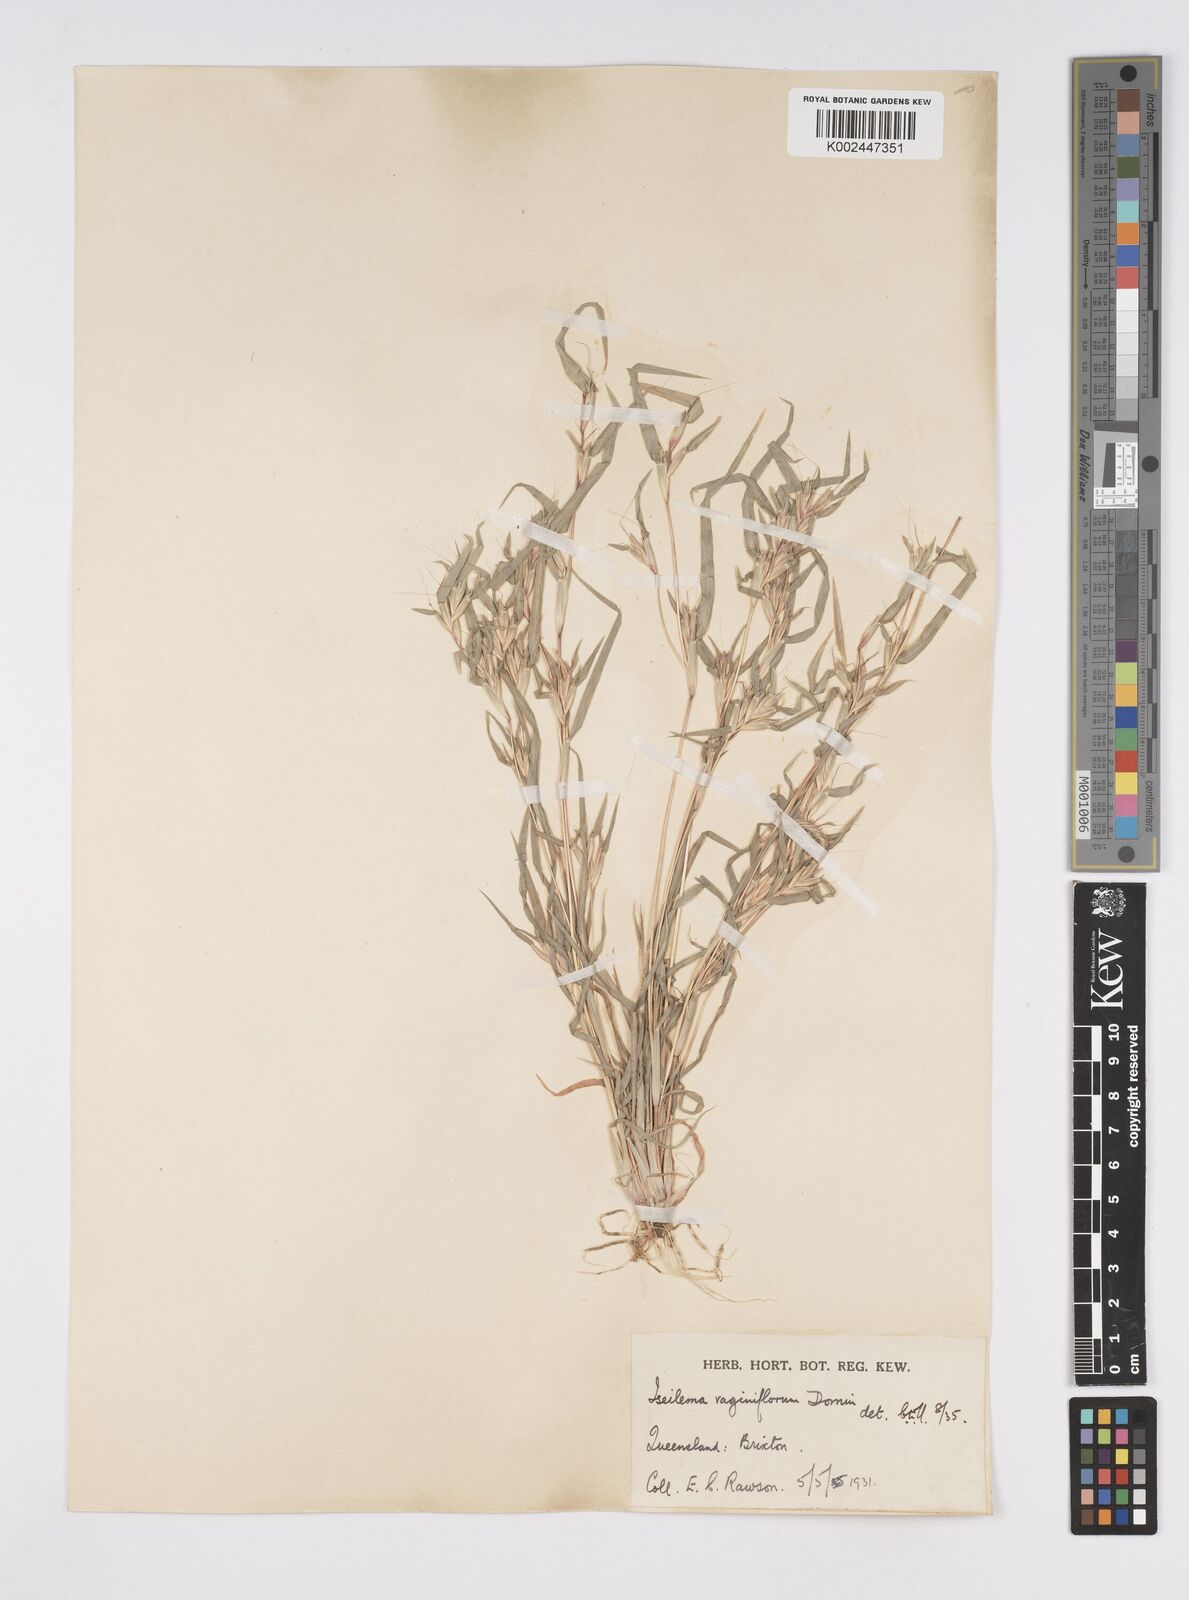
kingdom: Plantae
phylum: Tracheophyta
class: Liliopsida
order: Poales
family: Poaceae
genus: Iseilema
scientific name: Iseilema vaginiflorum
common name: Red flinders grass
